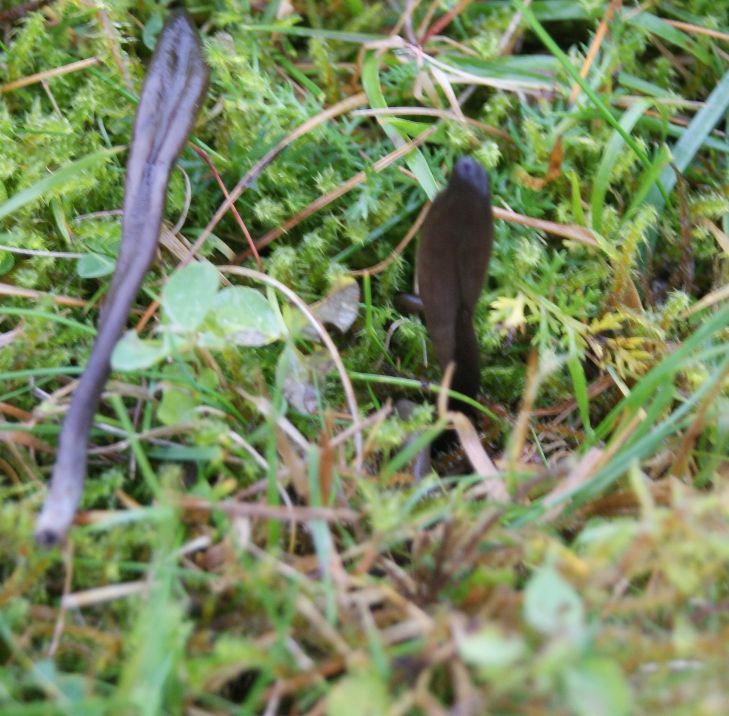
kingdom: Fungi
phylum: Ascomycota
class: Geoglossomycetes
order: Geoglossales
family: Geoglossaceae
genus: Hemileucoglossum
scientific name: Hemileucoglossum elongatum
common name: småsporet jordtunge
